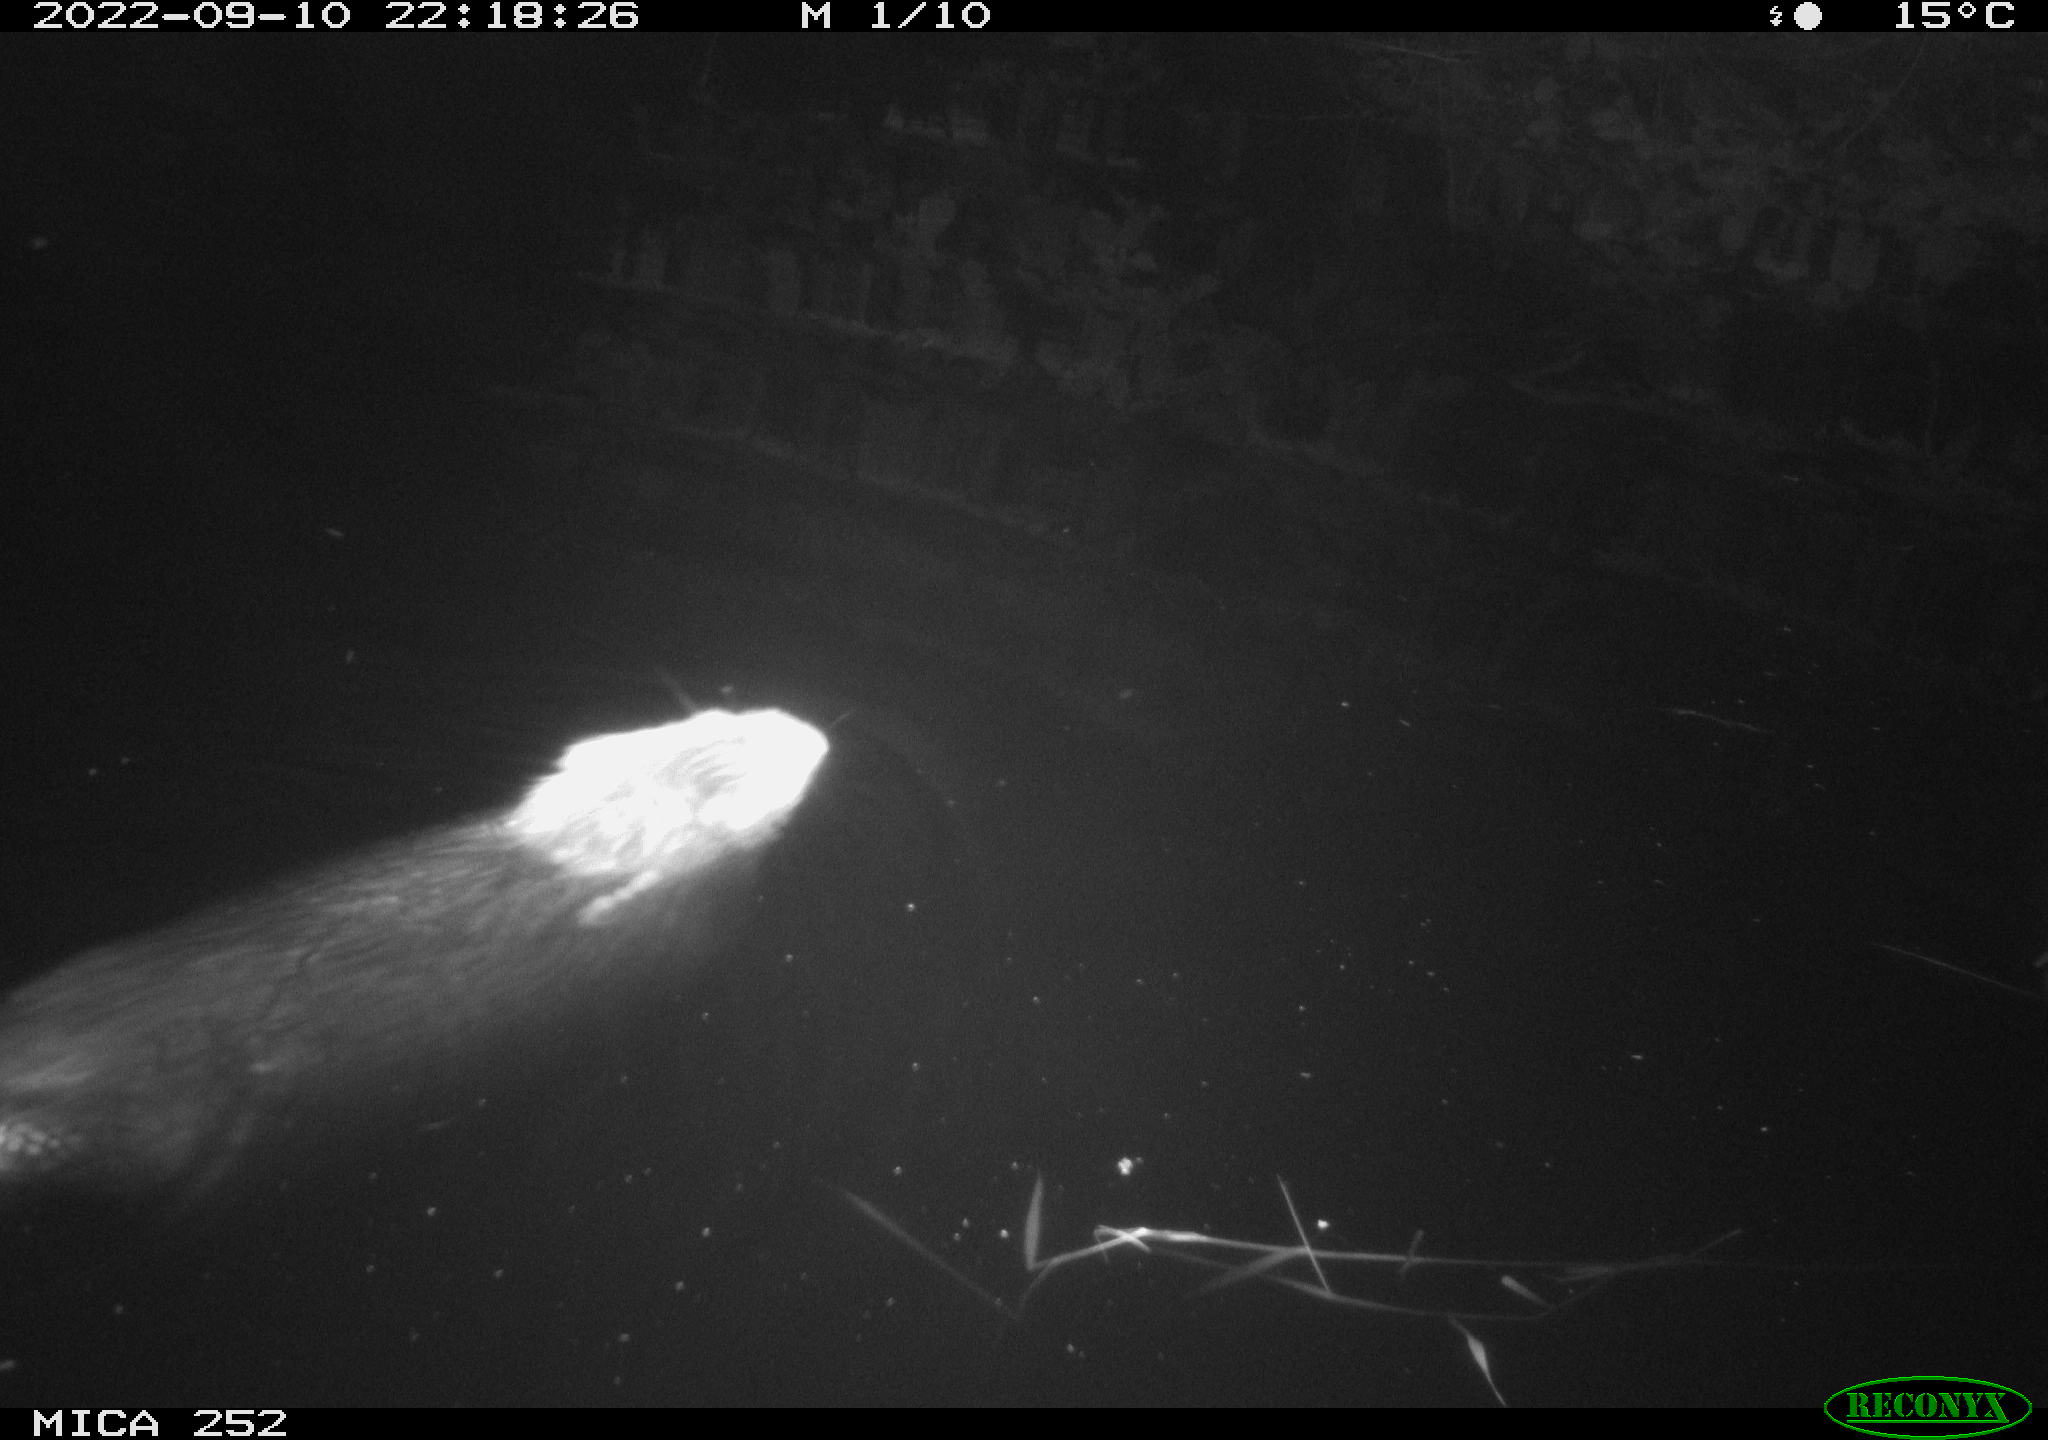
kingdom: Animalia
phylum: Chordata
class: Mammalia
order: Rodentia
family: Castoridae
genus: Castor
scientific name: Castor fiber
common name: Eurasian beaver
